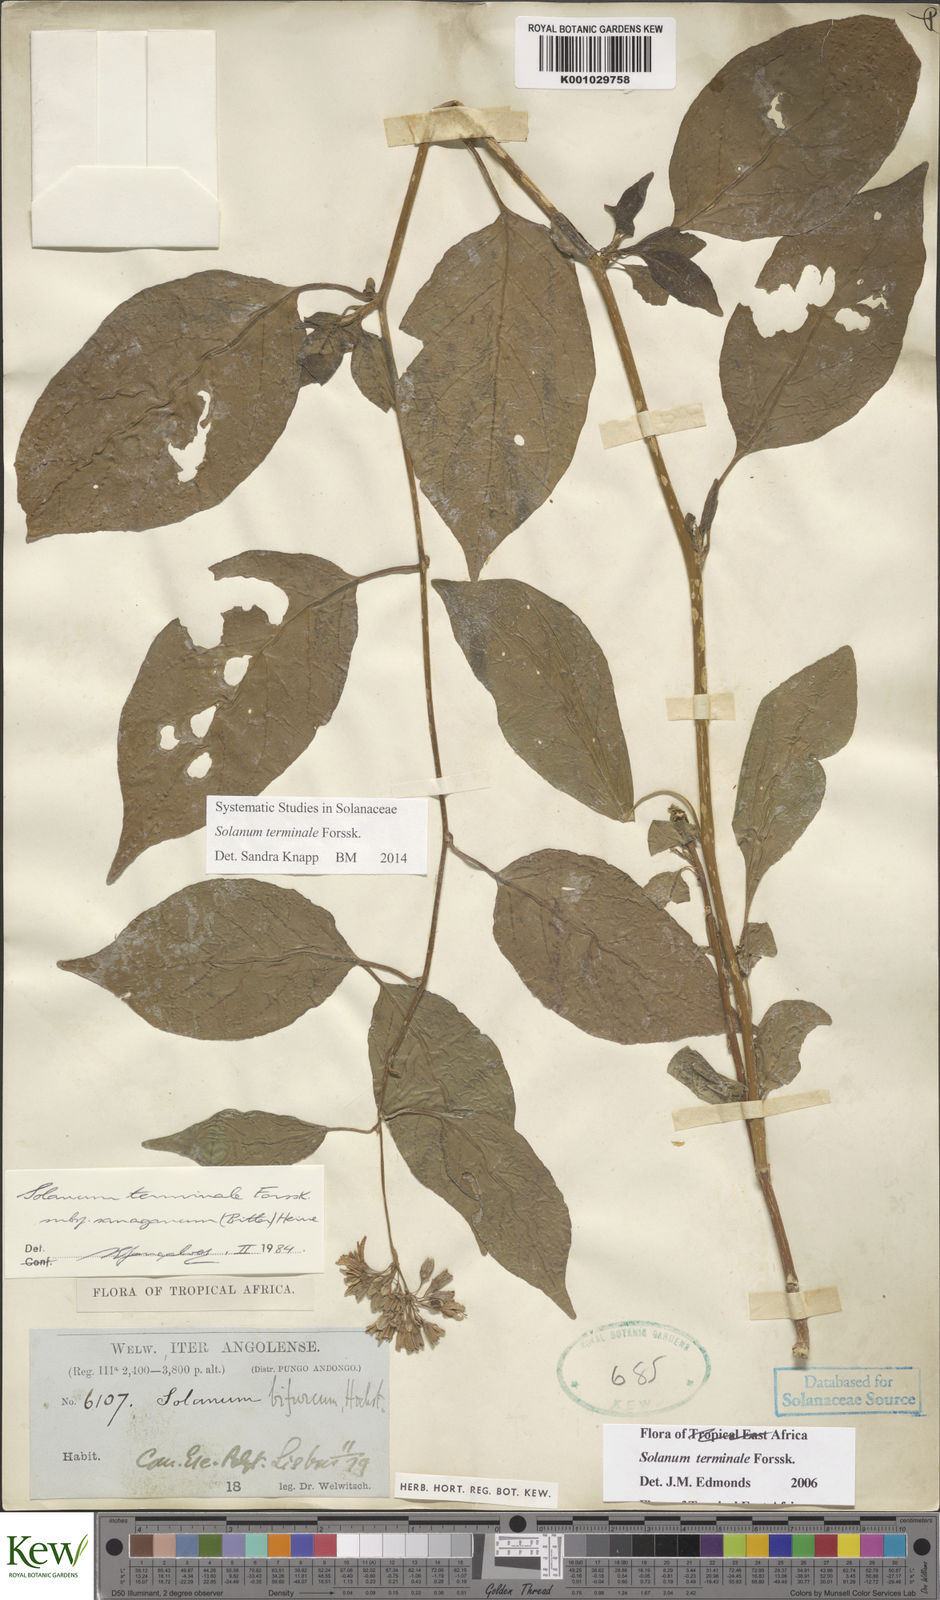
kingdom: Plantae
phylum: Tracheophyta
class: Magnoliopsida
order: Solanales
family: Solanaceae
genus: Solanum
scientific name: Solanum terminale
